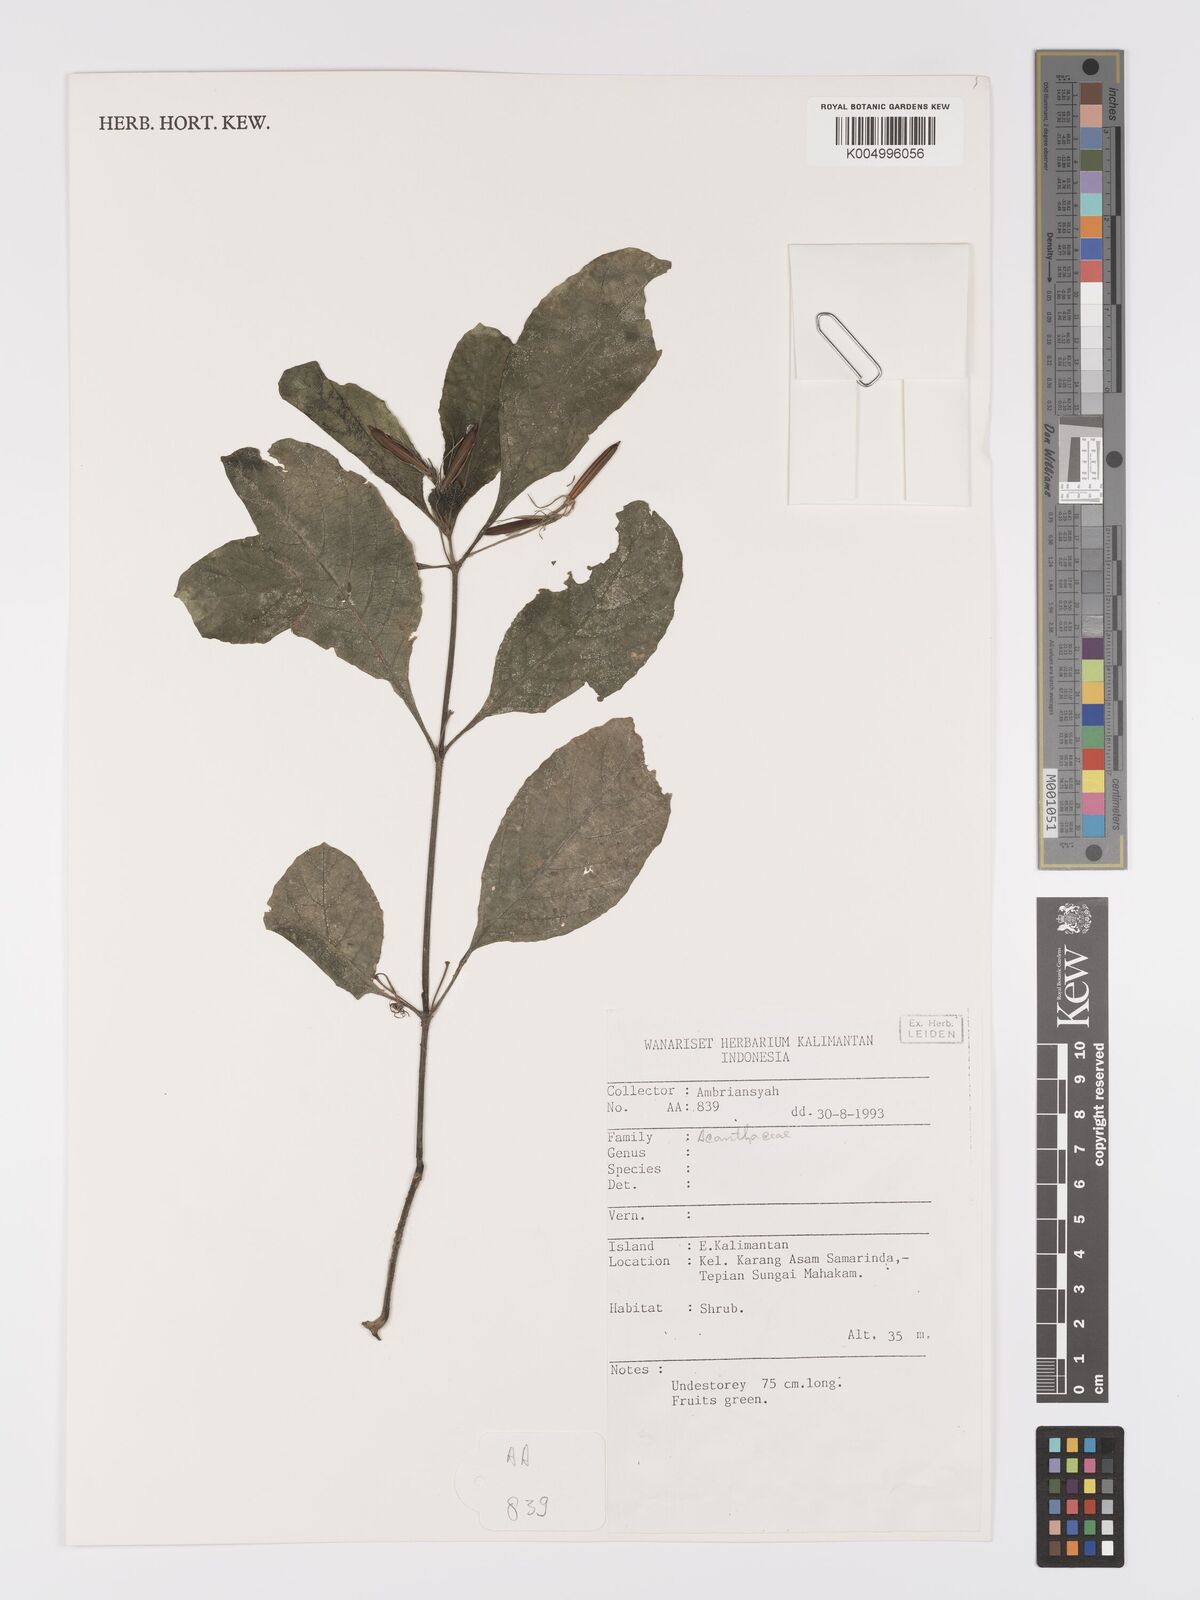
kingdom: Plantae
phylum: Tracheophyta
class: Magnoliopsida
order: Lamiales
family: Acanthaceae
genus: Ruellia
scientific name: Ruellia tuberosa
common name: Devil's bit
